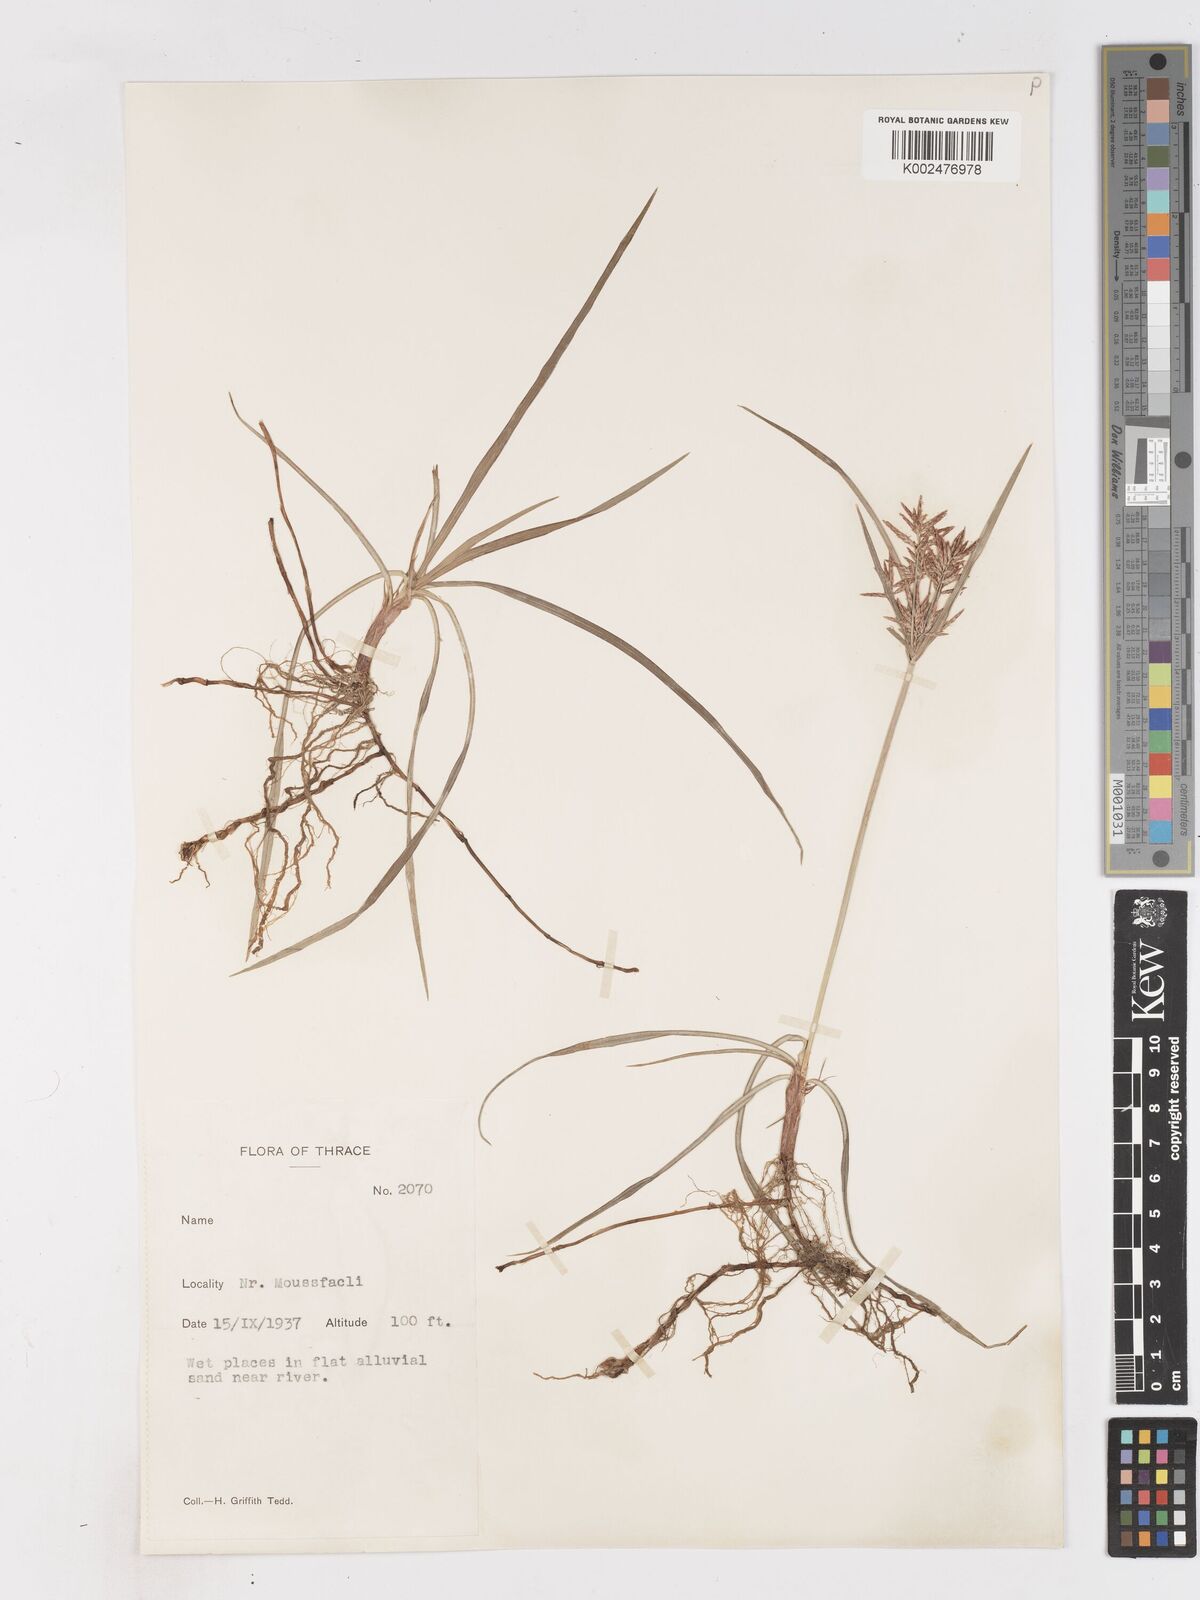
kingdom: Plantae
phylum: Tracheophyta
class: Liliopsida
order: Poales
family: Cyperaceae
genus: Cyperus
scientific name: Cyperus rotundus
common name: Nutgrass
